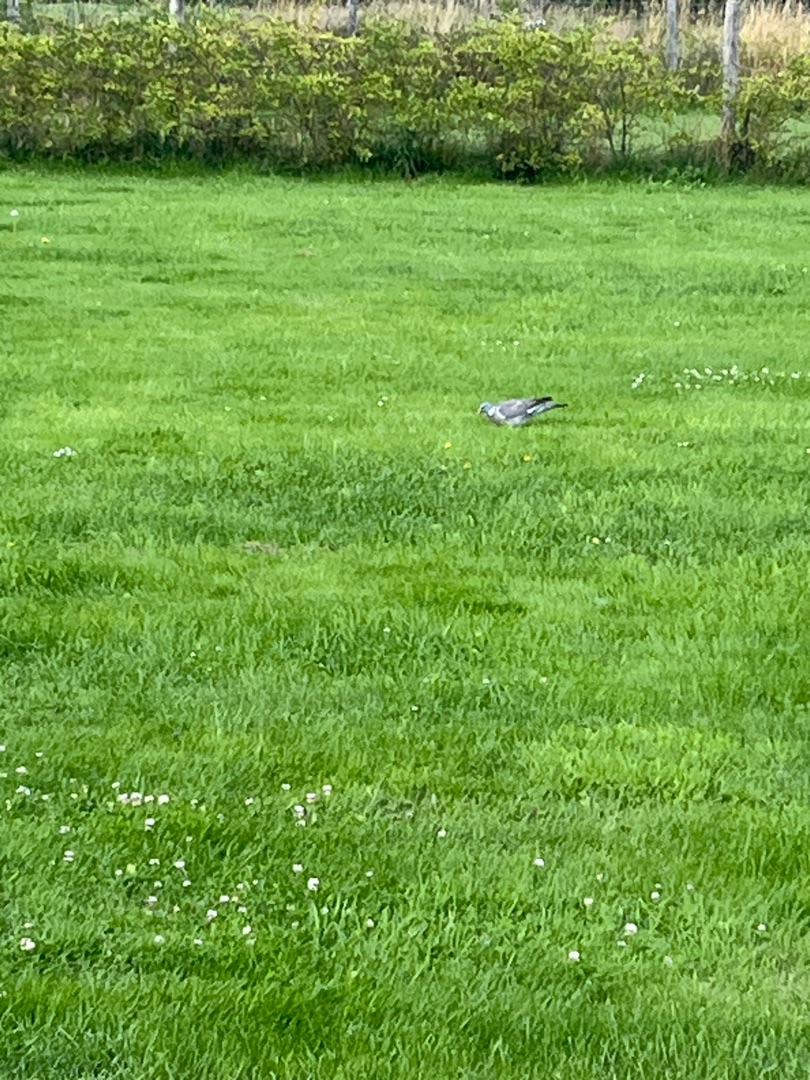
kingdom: Animalia
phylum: Chordata
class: Aves
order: Columbiformes
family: Columbidae
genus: Columba
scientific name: Columba palumbus
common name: Ringdue
